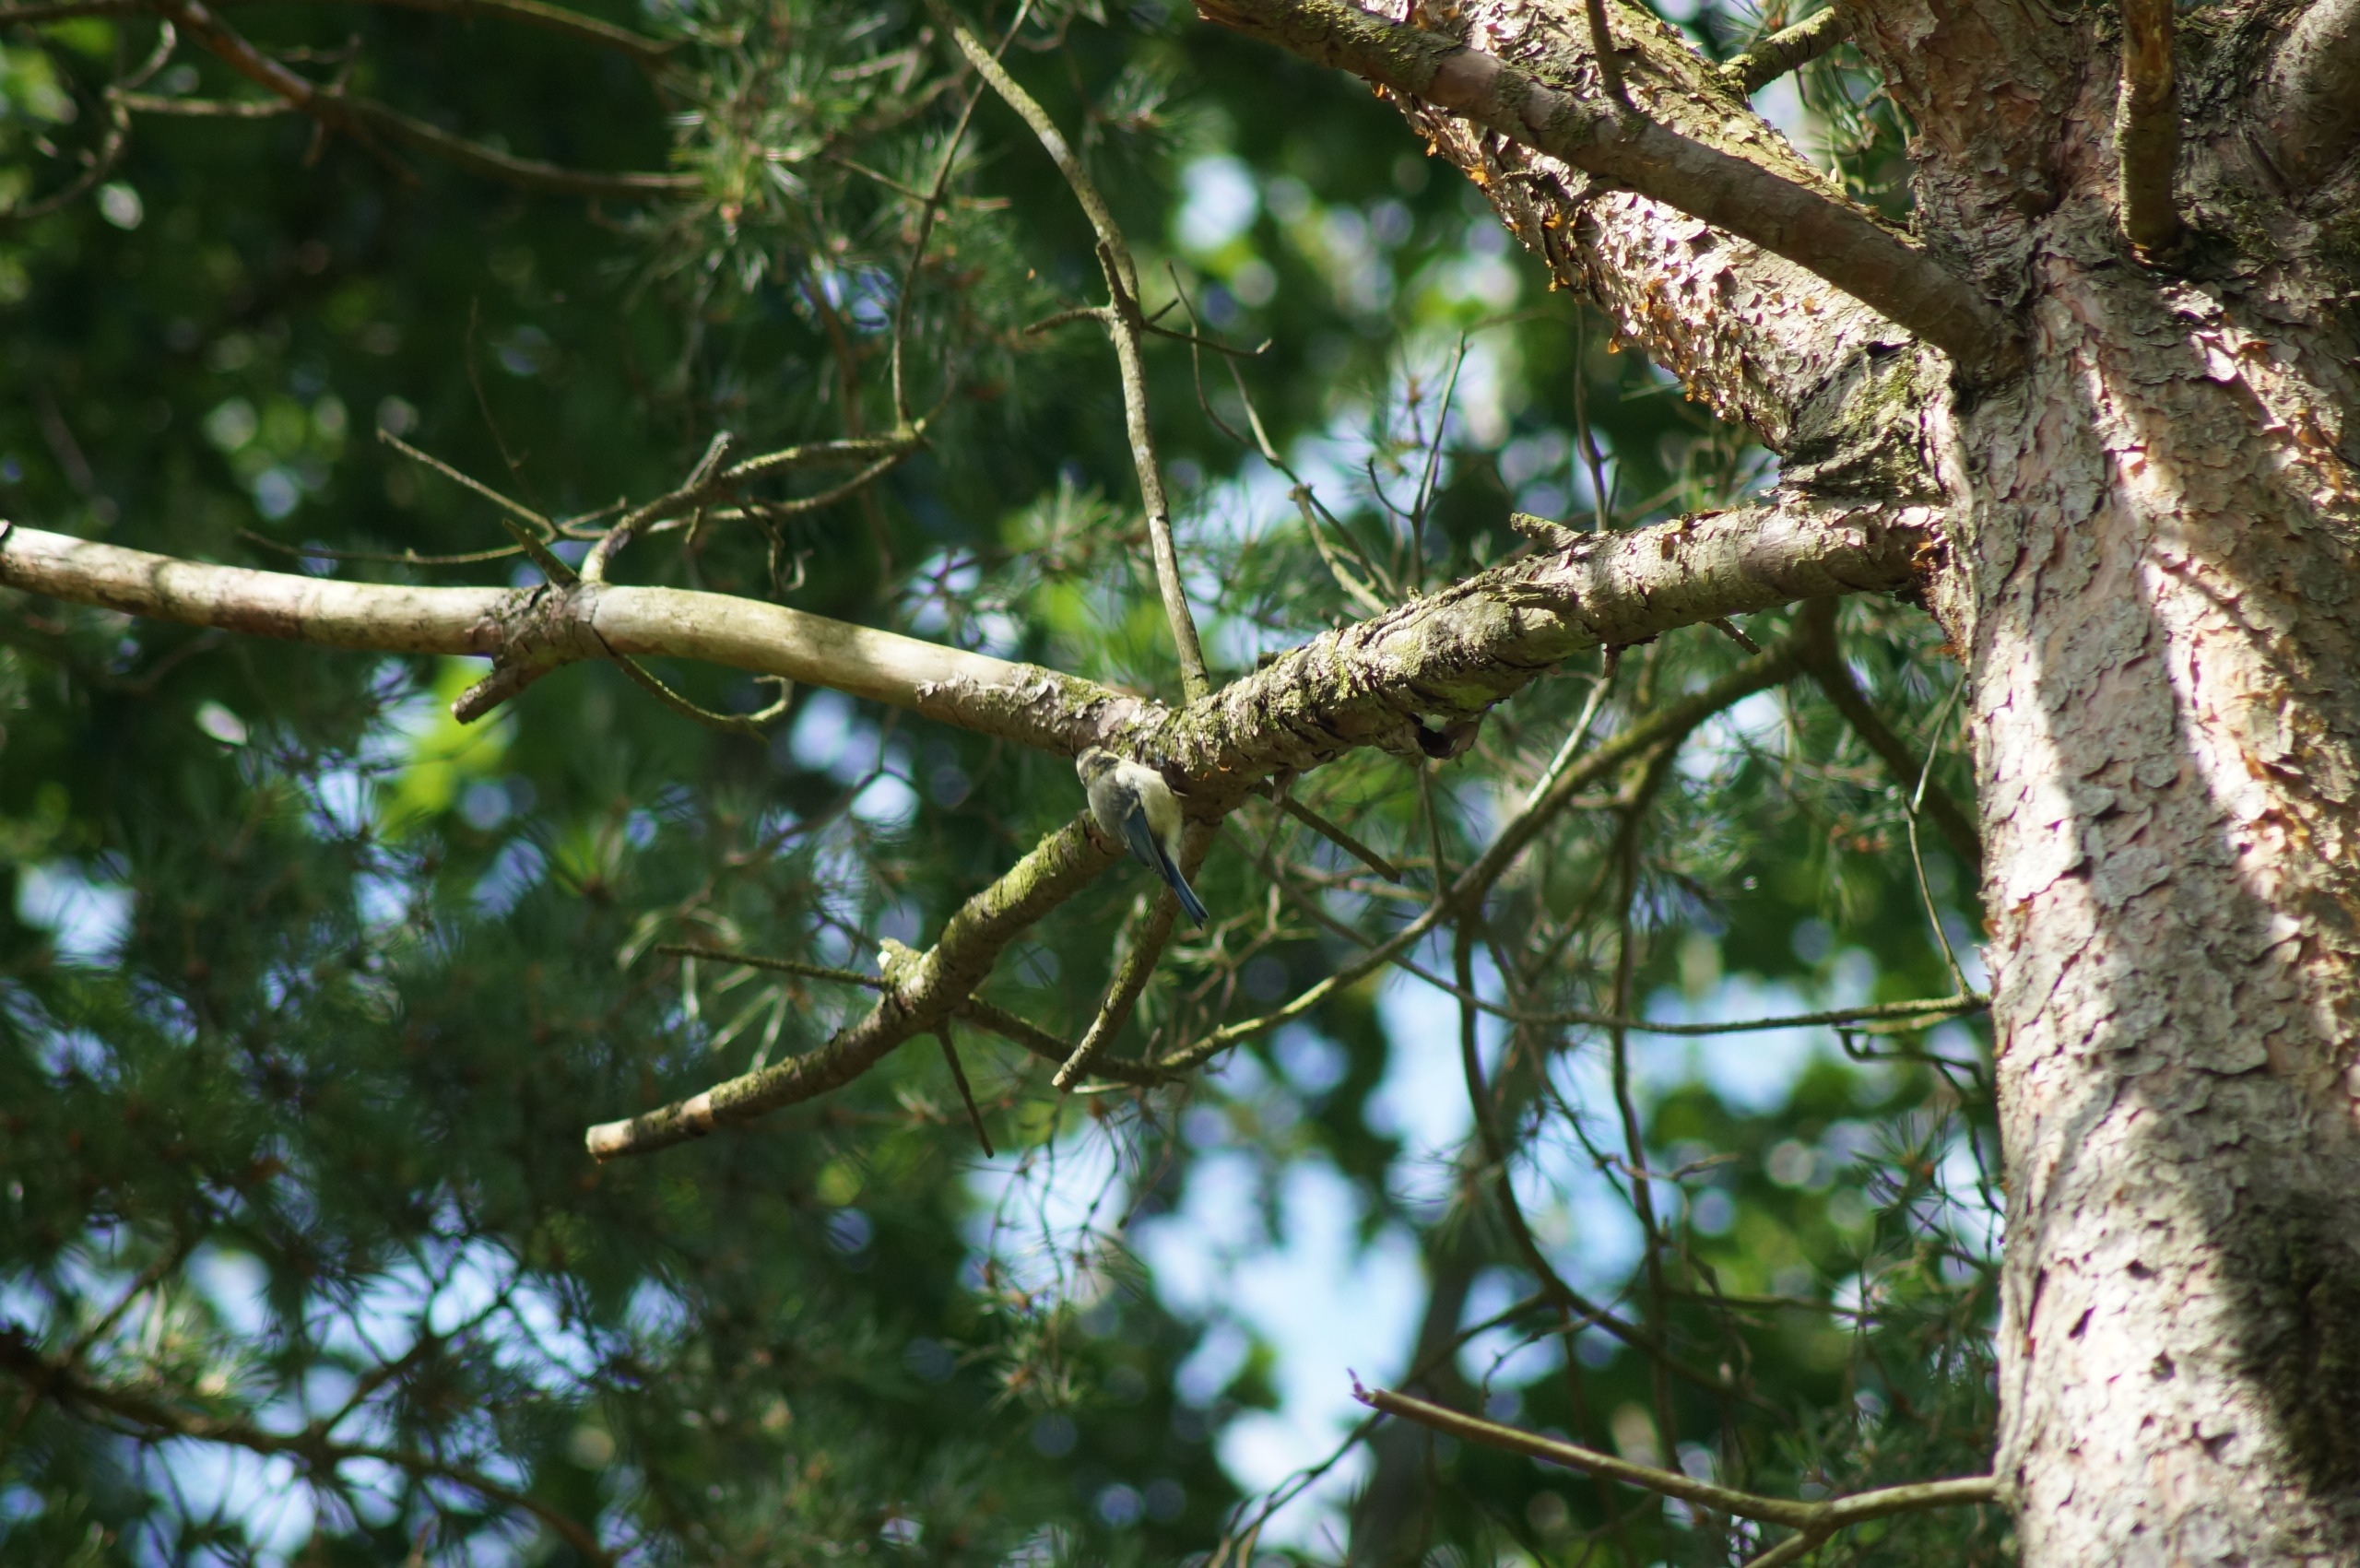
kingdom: Animalia
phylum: Chordata
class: Aves
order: Passeriformes
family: Paridae
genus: Cyanistes
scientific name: Cyanistes caeruleus
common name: Blåmejse
